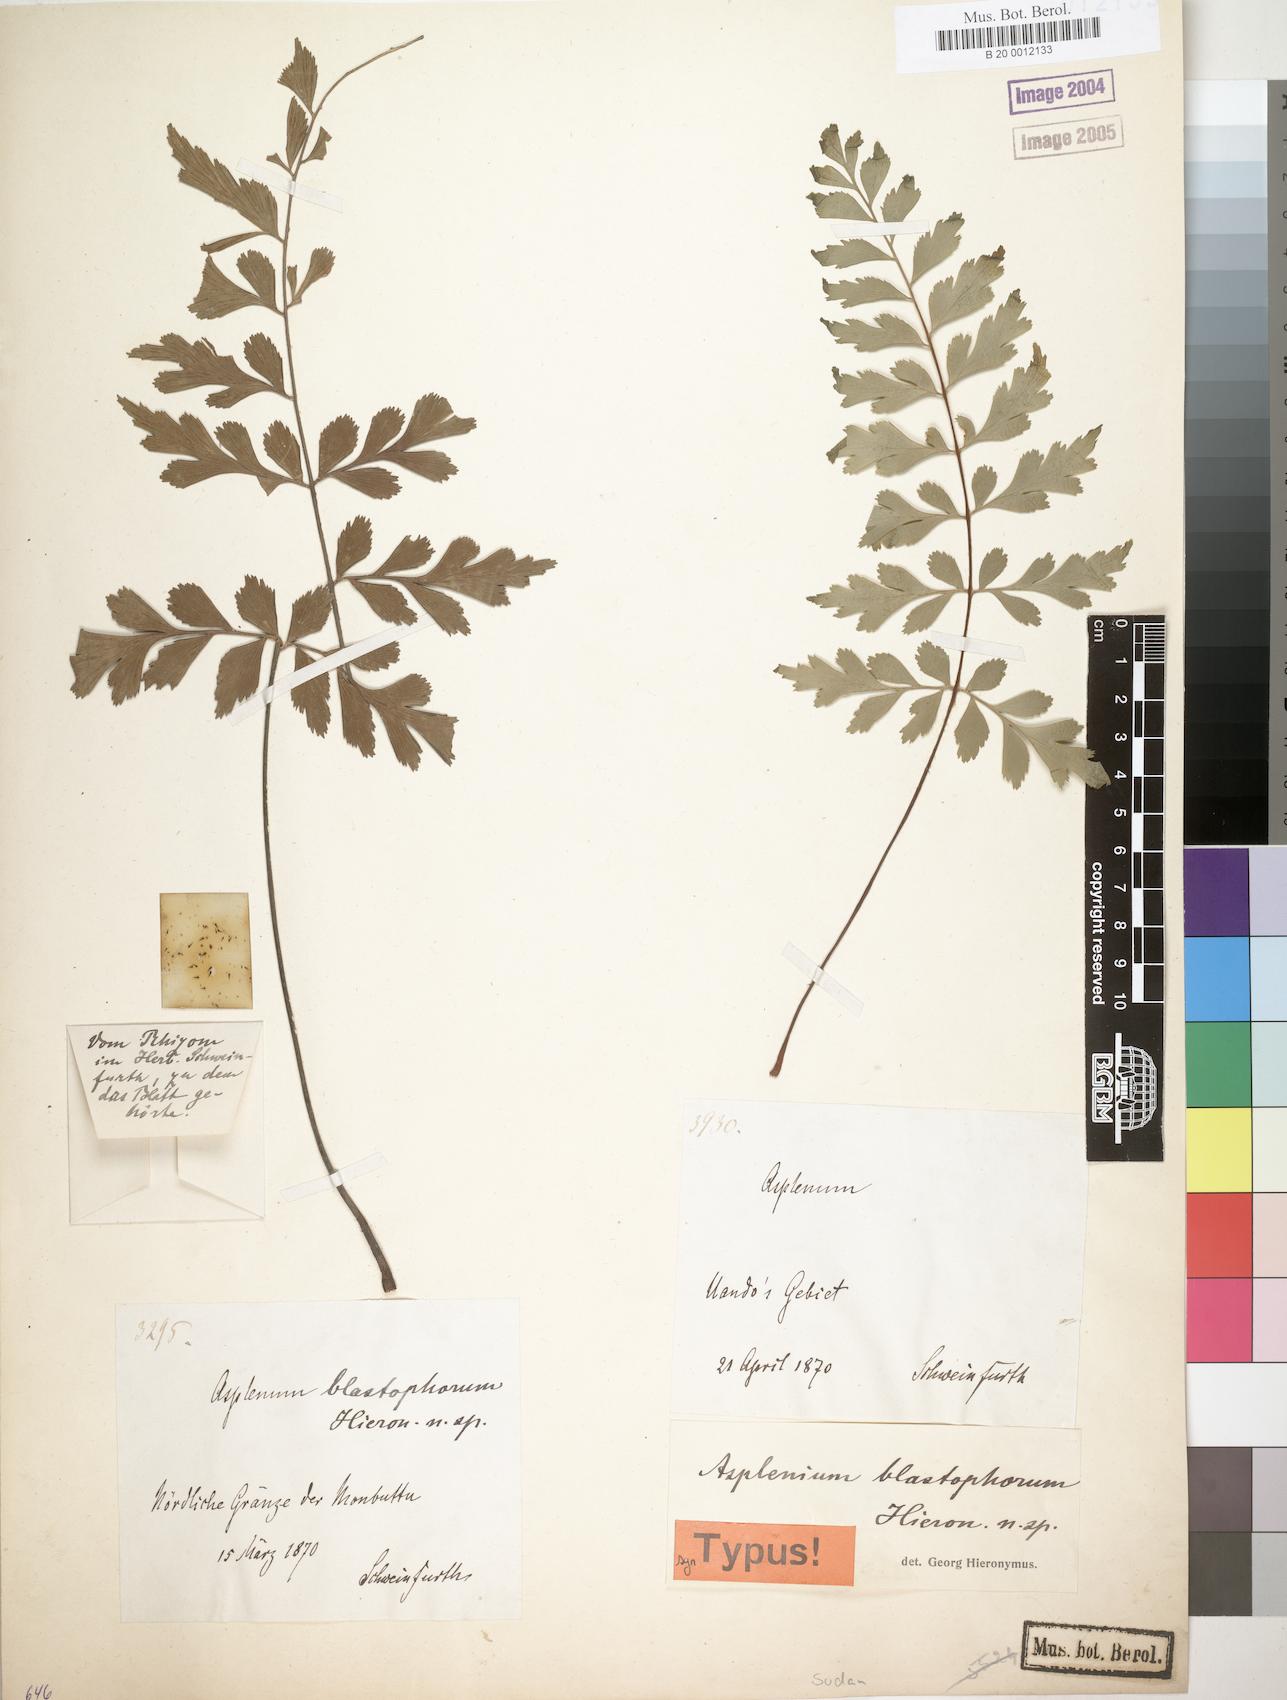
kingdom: Plantae
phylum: Tracheophyta
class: Polypodiopsida
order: Polypodiales
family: Aspleniaceae
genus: Asplenium
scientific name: Asplenium blastophorum
